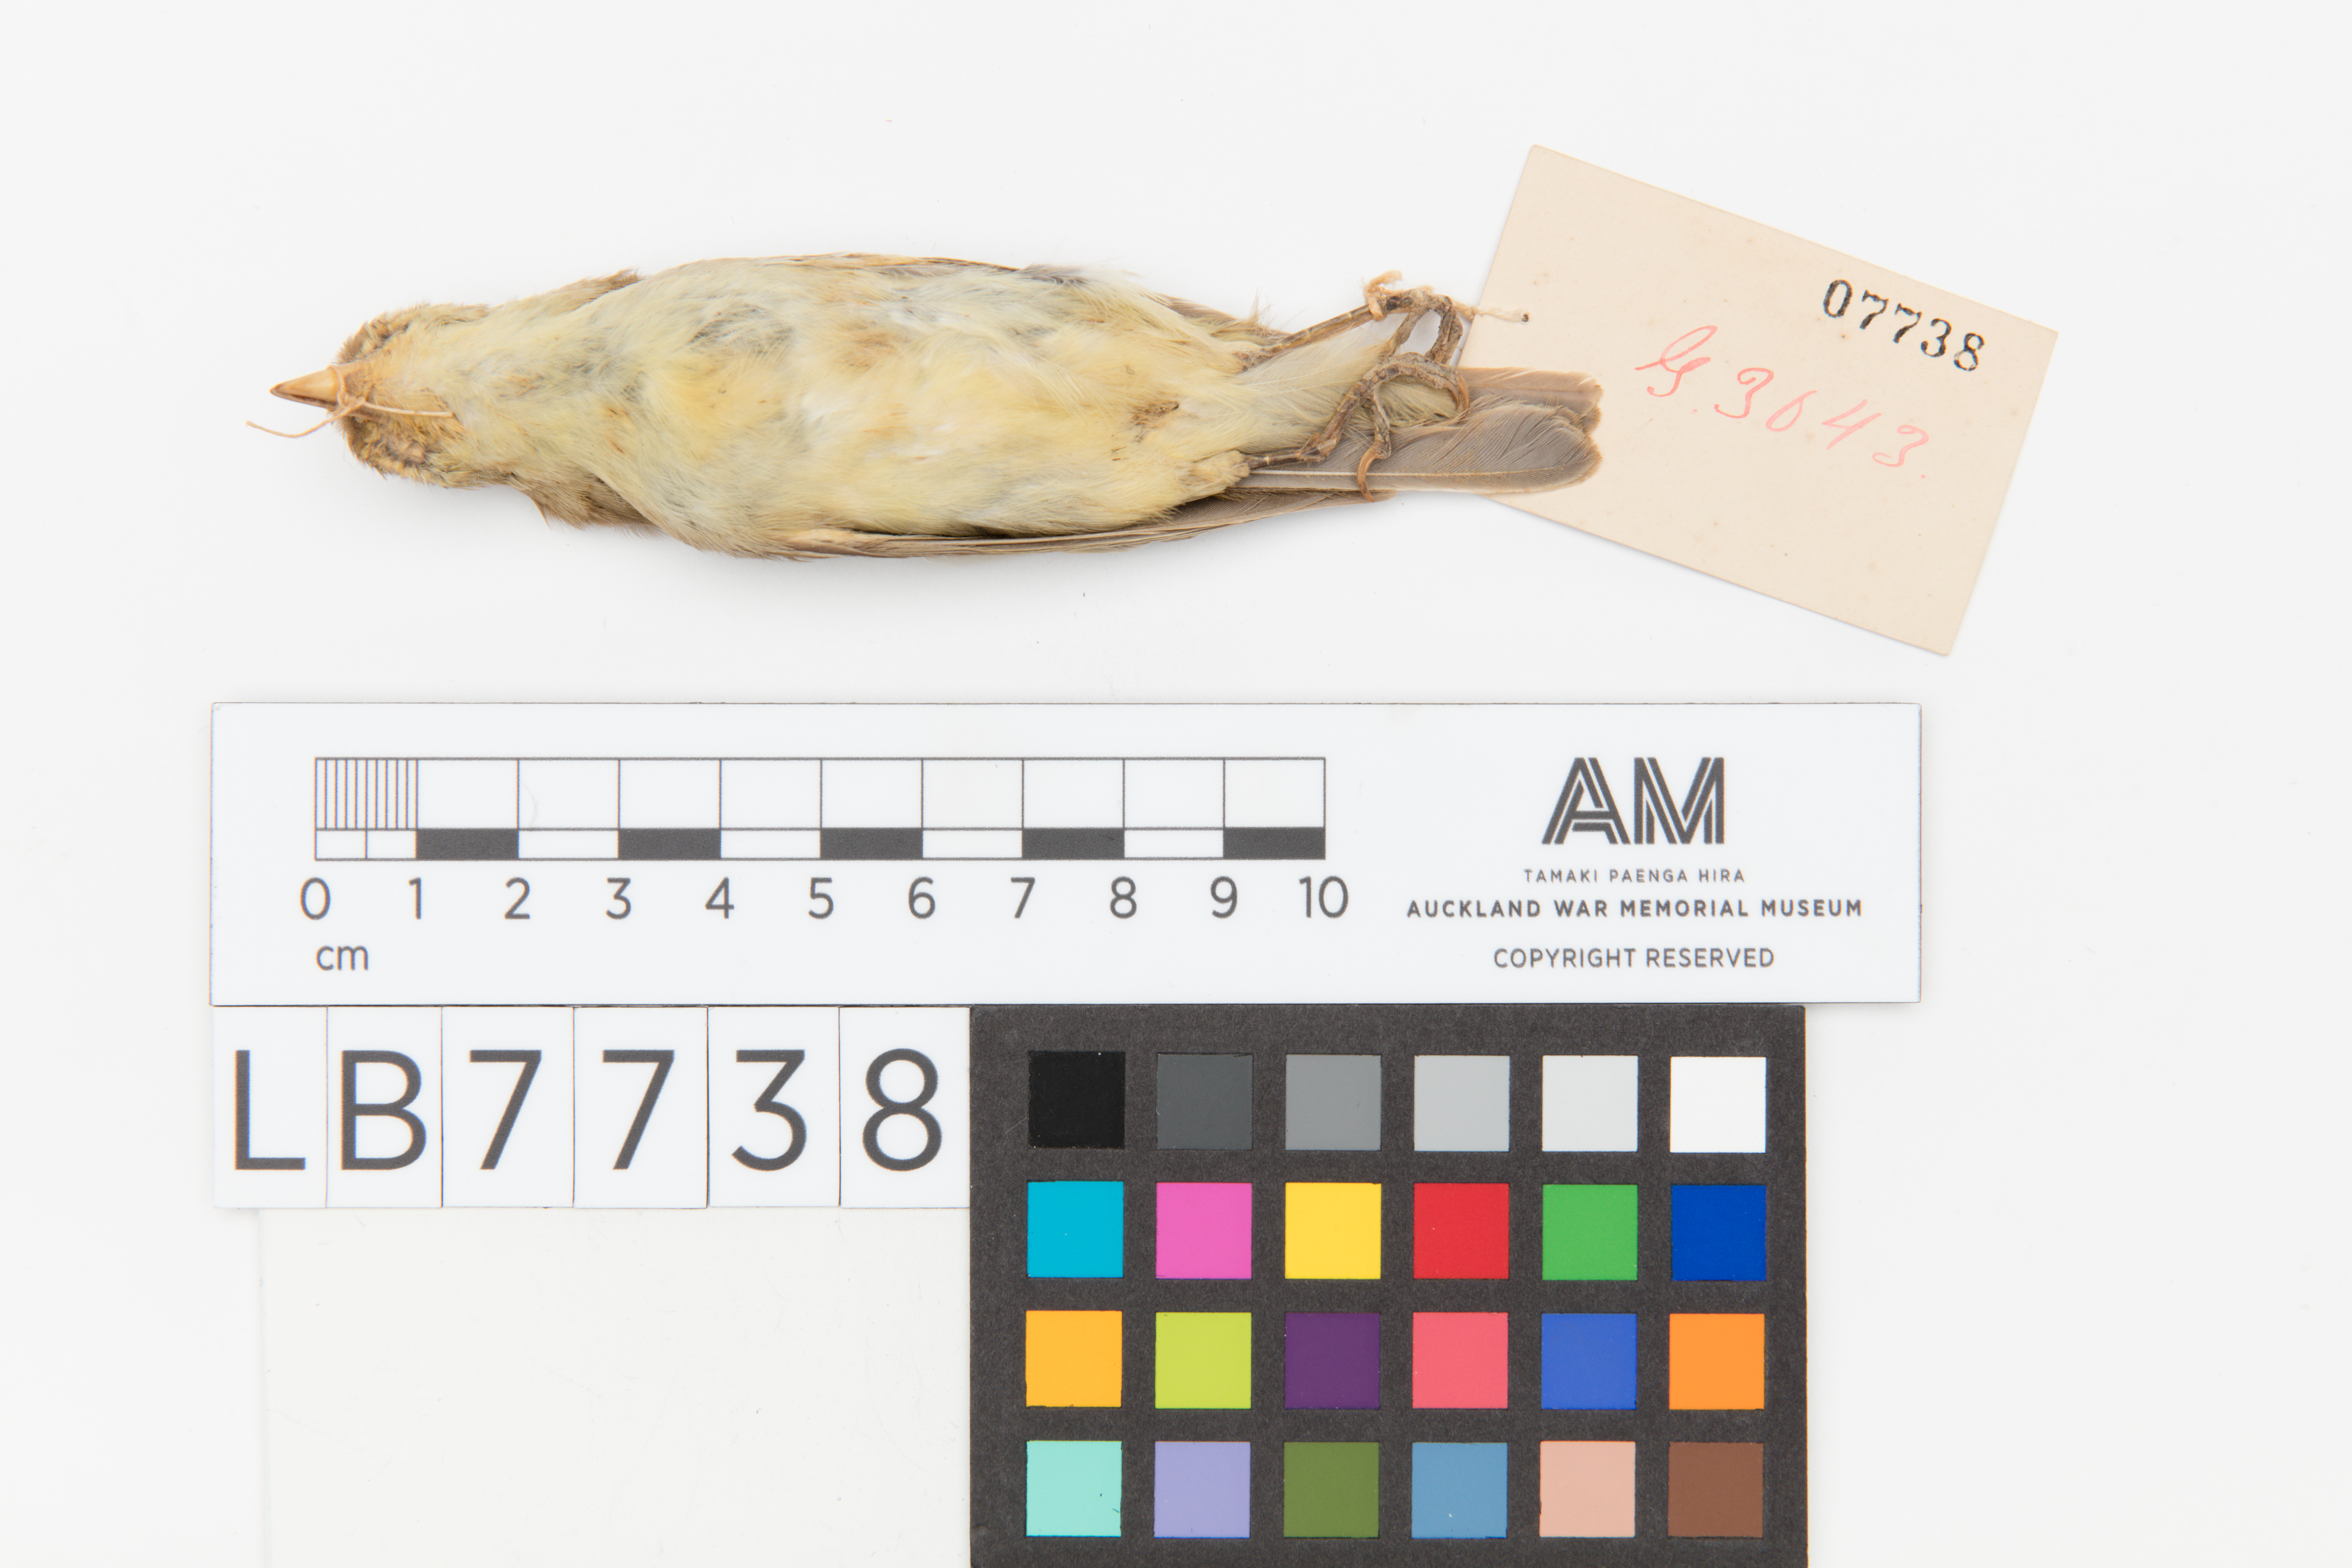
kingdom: Animalia
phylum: Chordata
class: Aves
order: Passeriformes
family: Acrocephalidae
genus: Hippolais
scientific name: Hippolais polyglotta
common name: Melodious warbler
